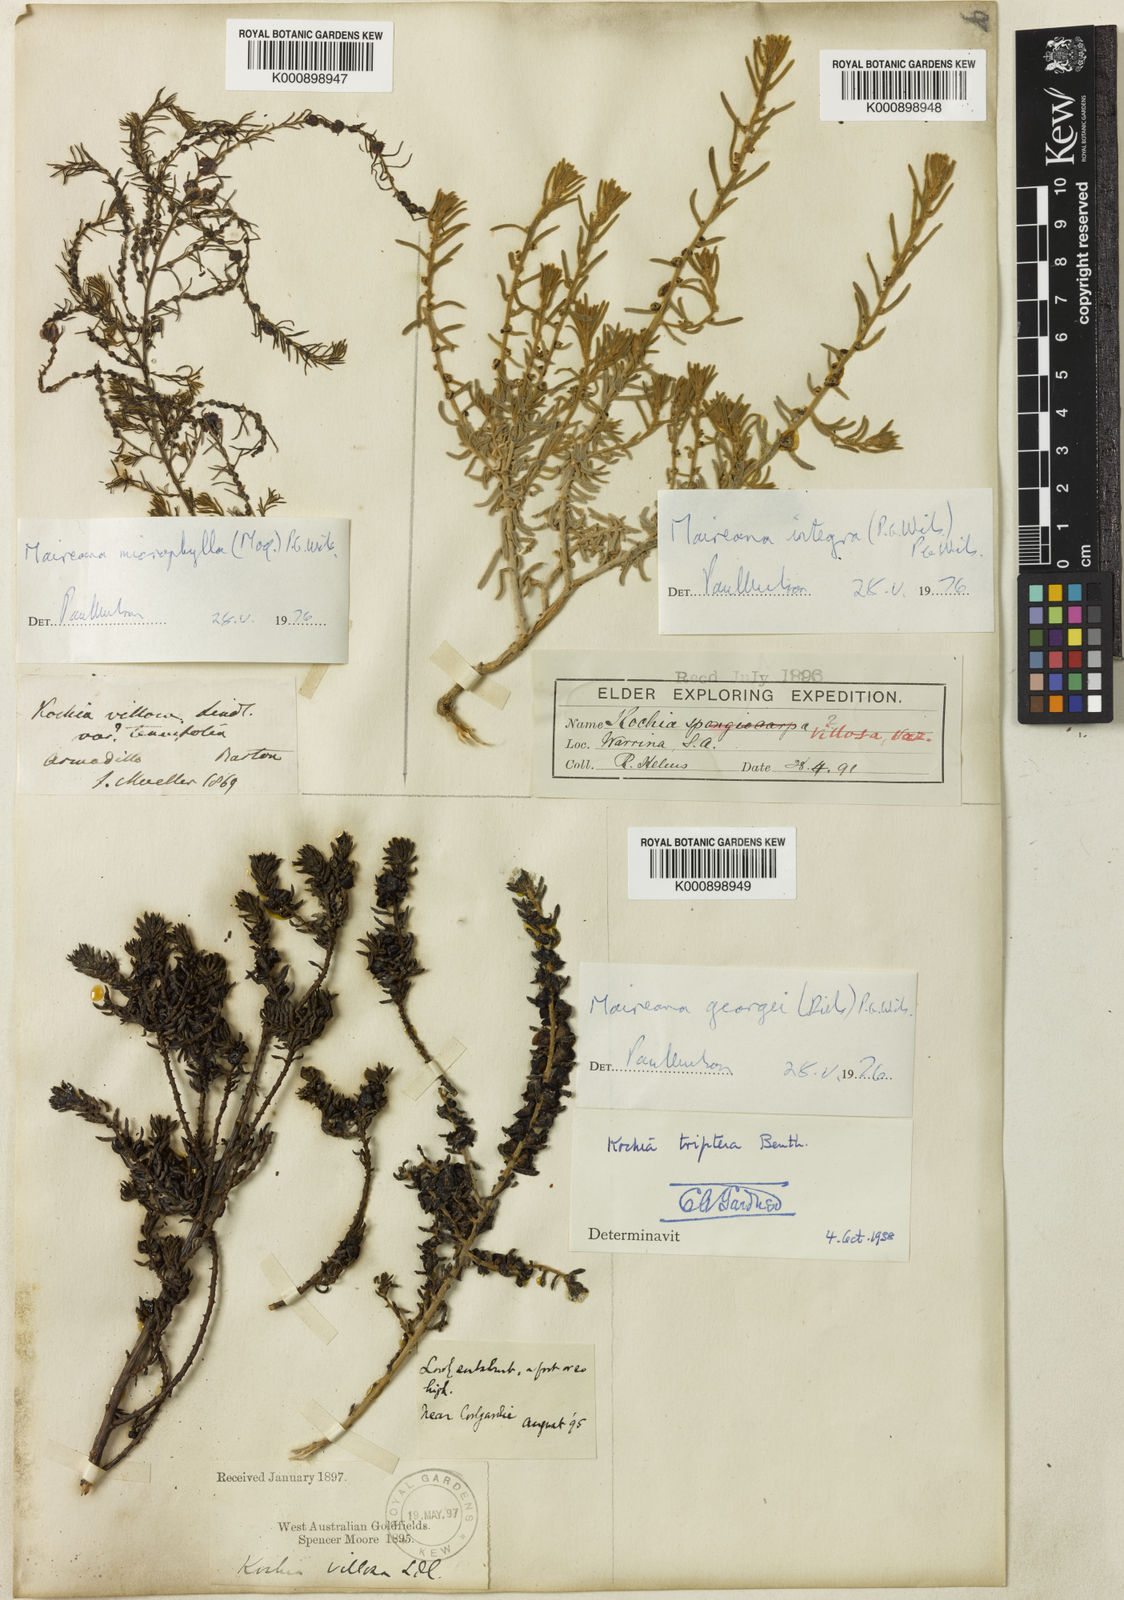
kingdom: Plantae
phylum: Tracheophyta
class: Magnoliopsida
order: Caryophyllales
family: Amaranthaceae
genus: Maireana
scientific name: Maireana georgei
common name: Satiny bluebush
